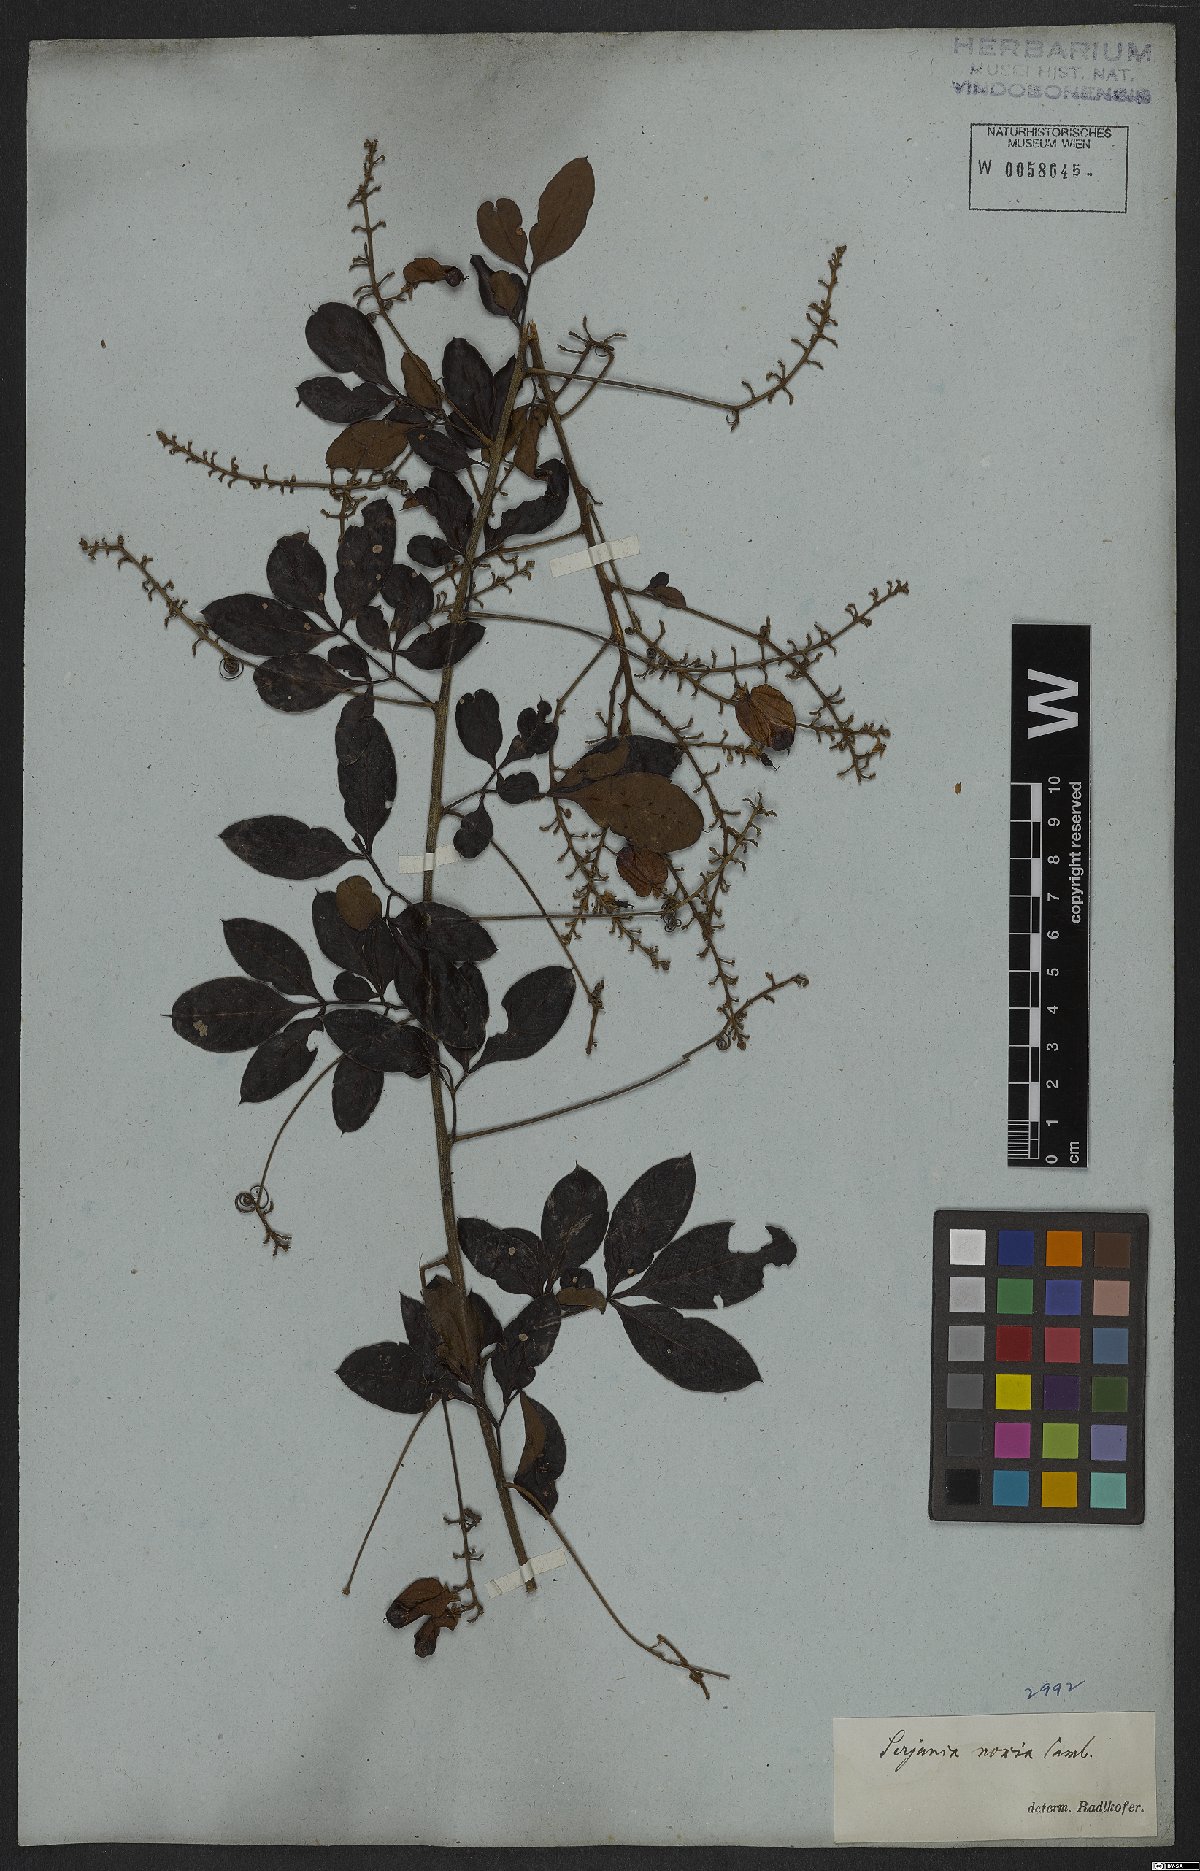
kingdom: Plantae
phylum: Tracheophyta
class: Magnoliopsida
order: Sapindales
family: Sapindaceae
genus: Serjania
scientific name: Serjania noxia
